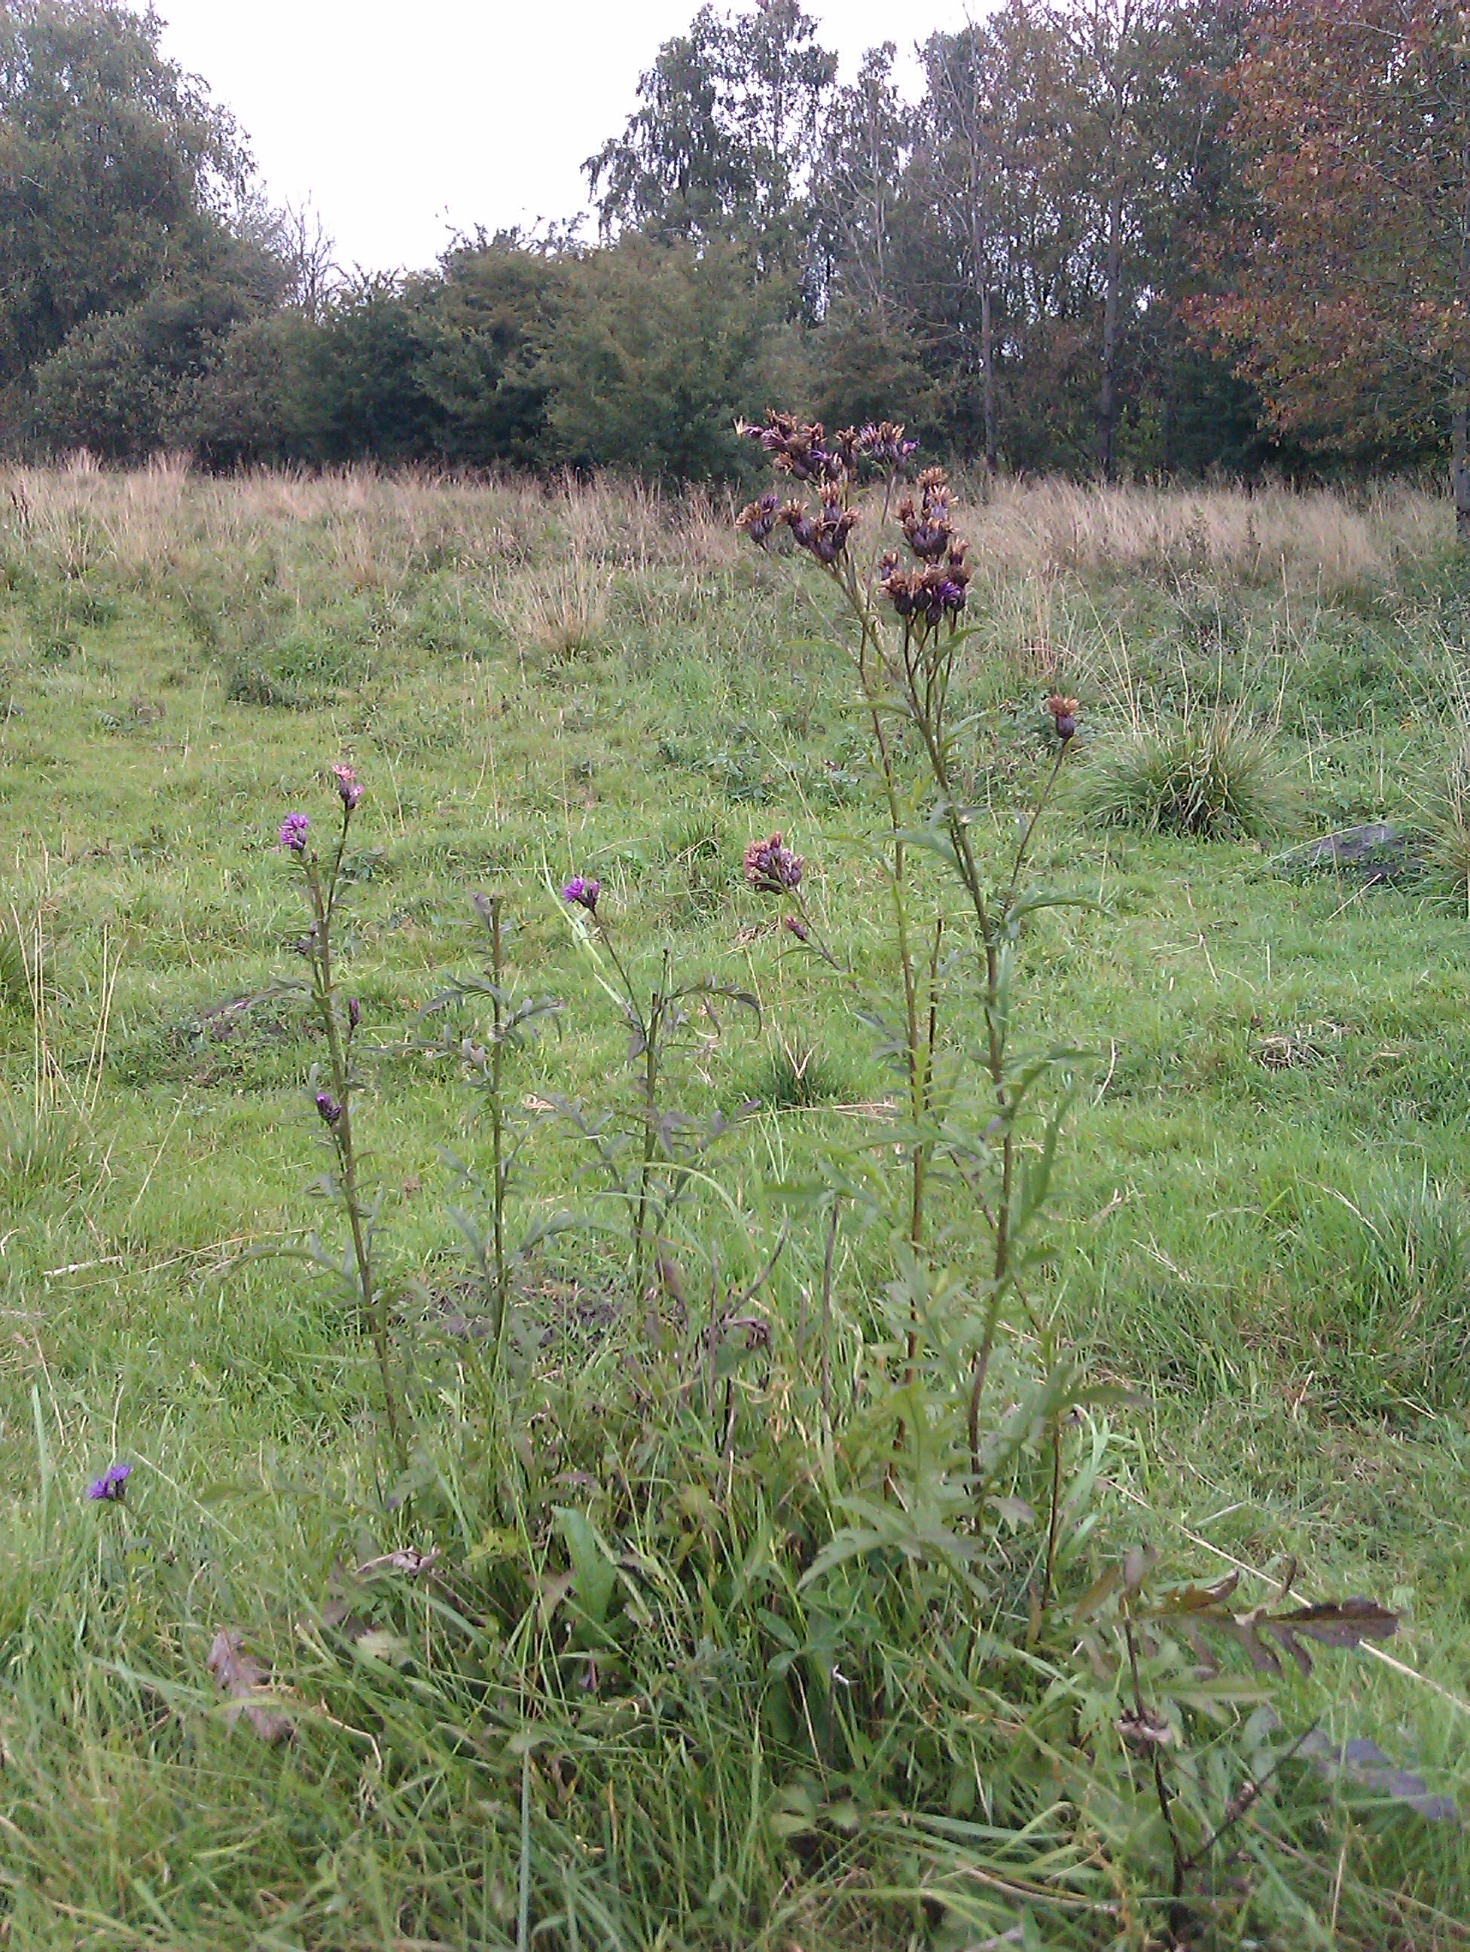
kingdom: Plantae
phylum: Tracheophyta
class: Magnoliopsida
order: Asterales
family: Asteraceae
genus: Serratula
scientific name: Serratula tinctoria
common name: Eng-skær
